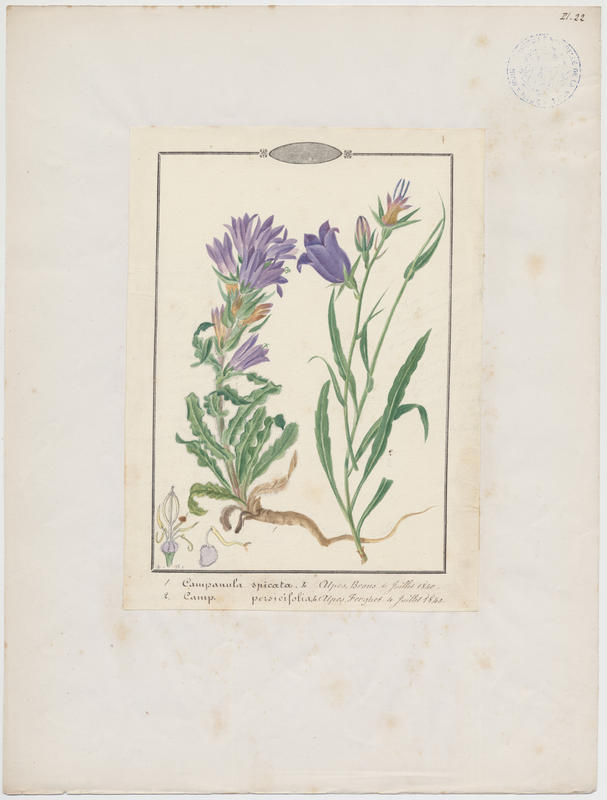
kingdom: Plantae
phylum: Tracheophyta
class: Magnoliopsida
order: Asterales
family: Campanulaceae
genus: Campanula
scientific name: Campanula persicifolia
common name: Peach-leaved bellflower
